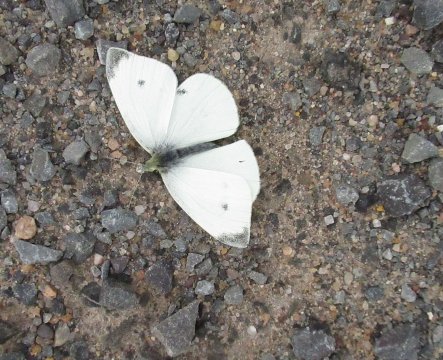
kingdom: Animalia
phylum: Arthropoda
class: Insecta
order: Lepidoptera
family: Pieridae
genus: Pieris
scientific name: Pieris rapae
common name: Cabbage White
